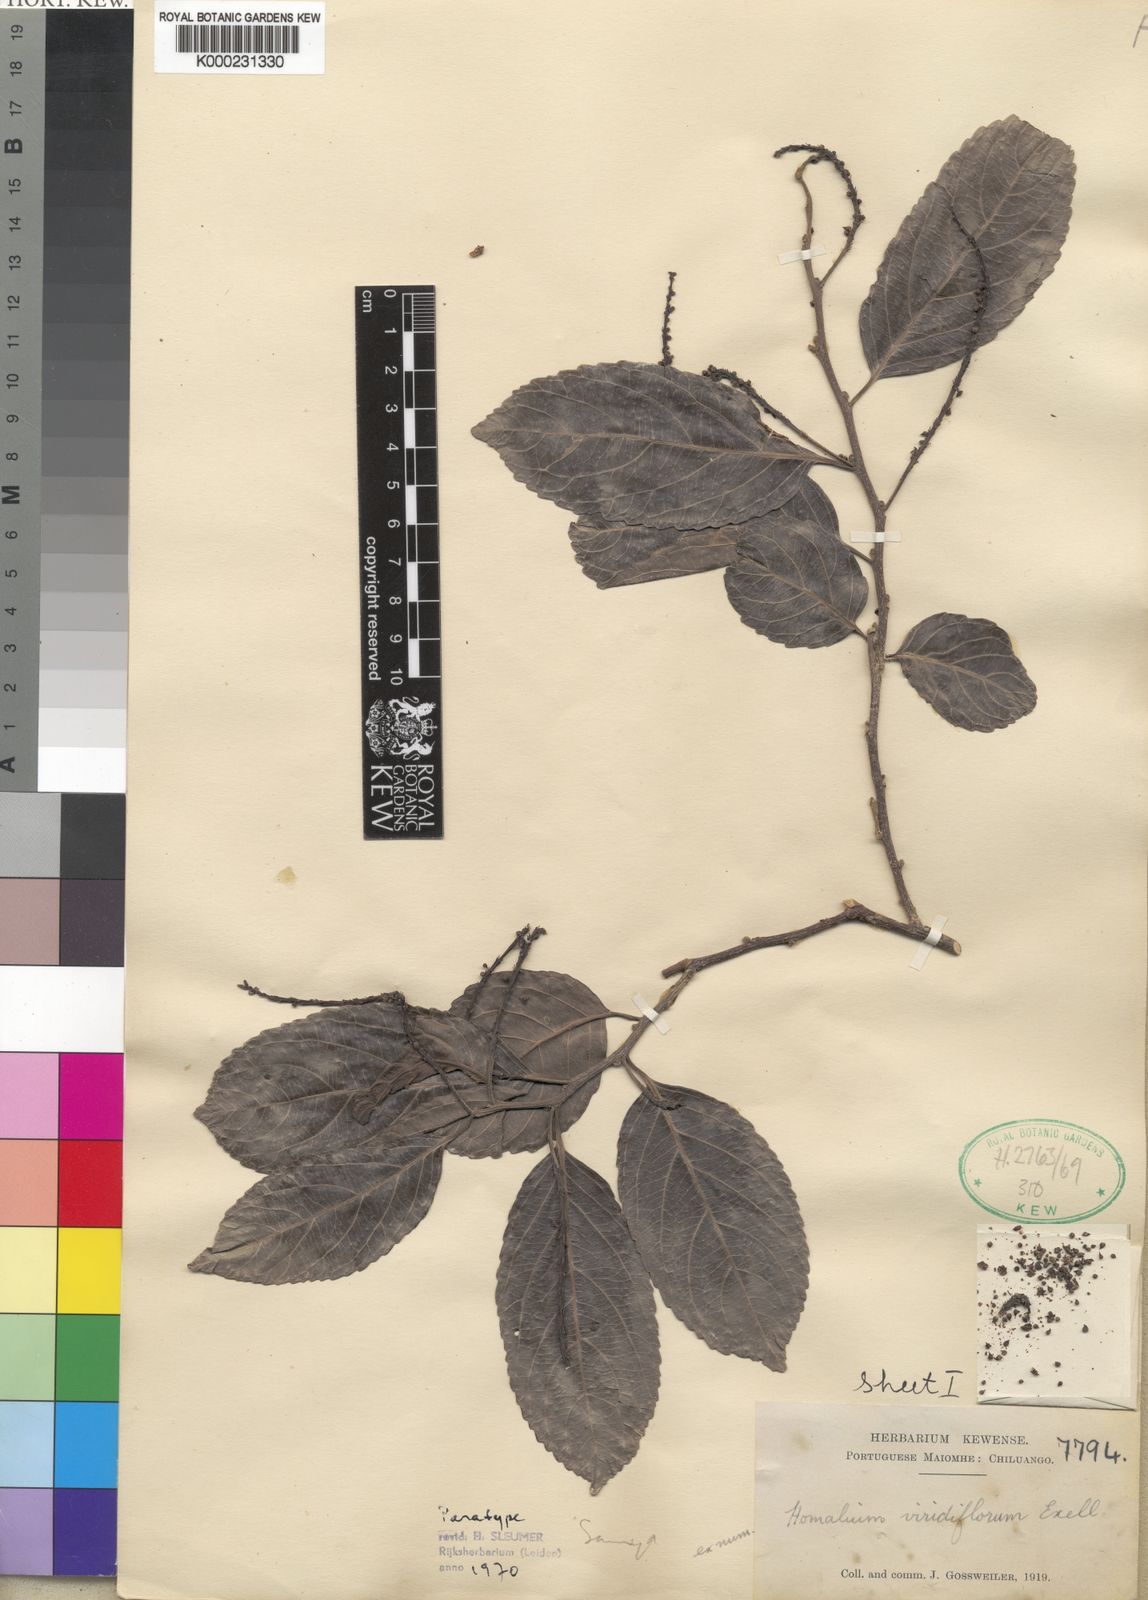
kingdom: Plantae
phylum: Tracheophyta
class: Magnoliopsida
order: Malpighiales
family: Salicaceae
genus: Homalium
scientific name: Homalium
